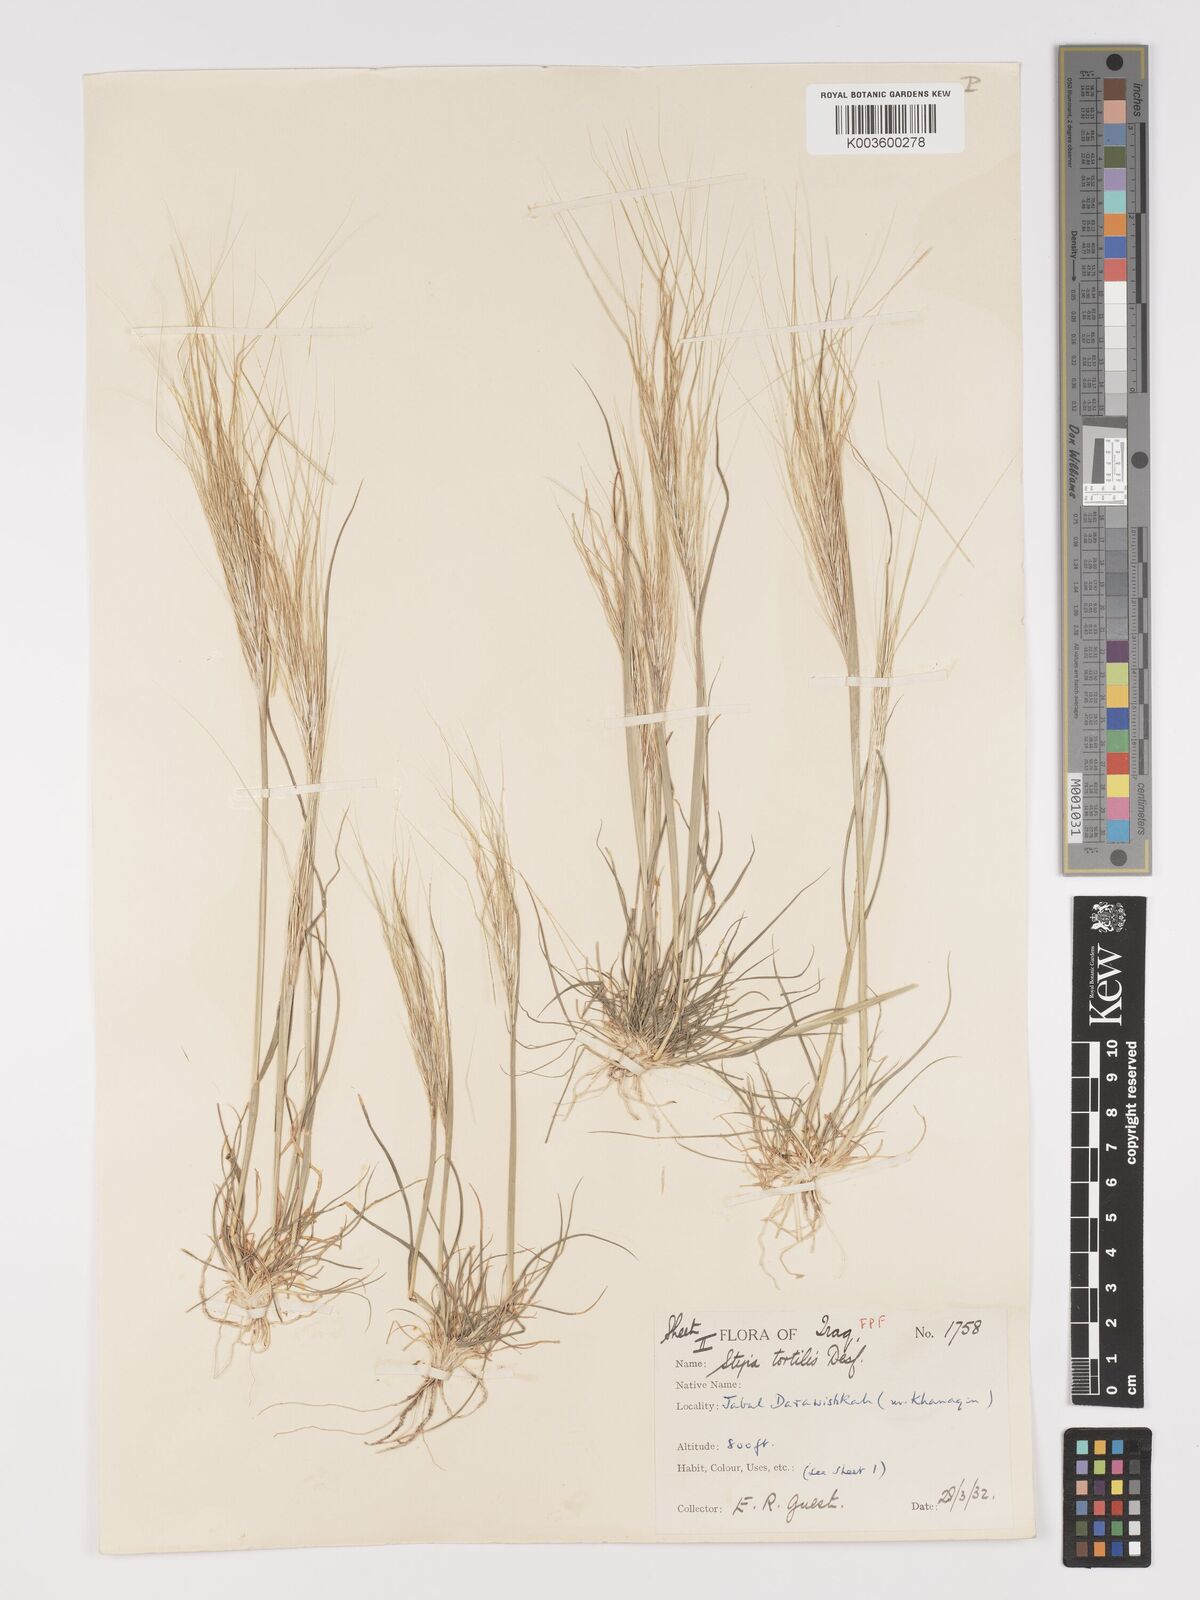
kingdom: Plantae
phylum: Tracheophyta
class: Liliopsida
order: Poales
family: Poaceae
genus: Stipellula
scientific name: Stipellula capensis
